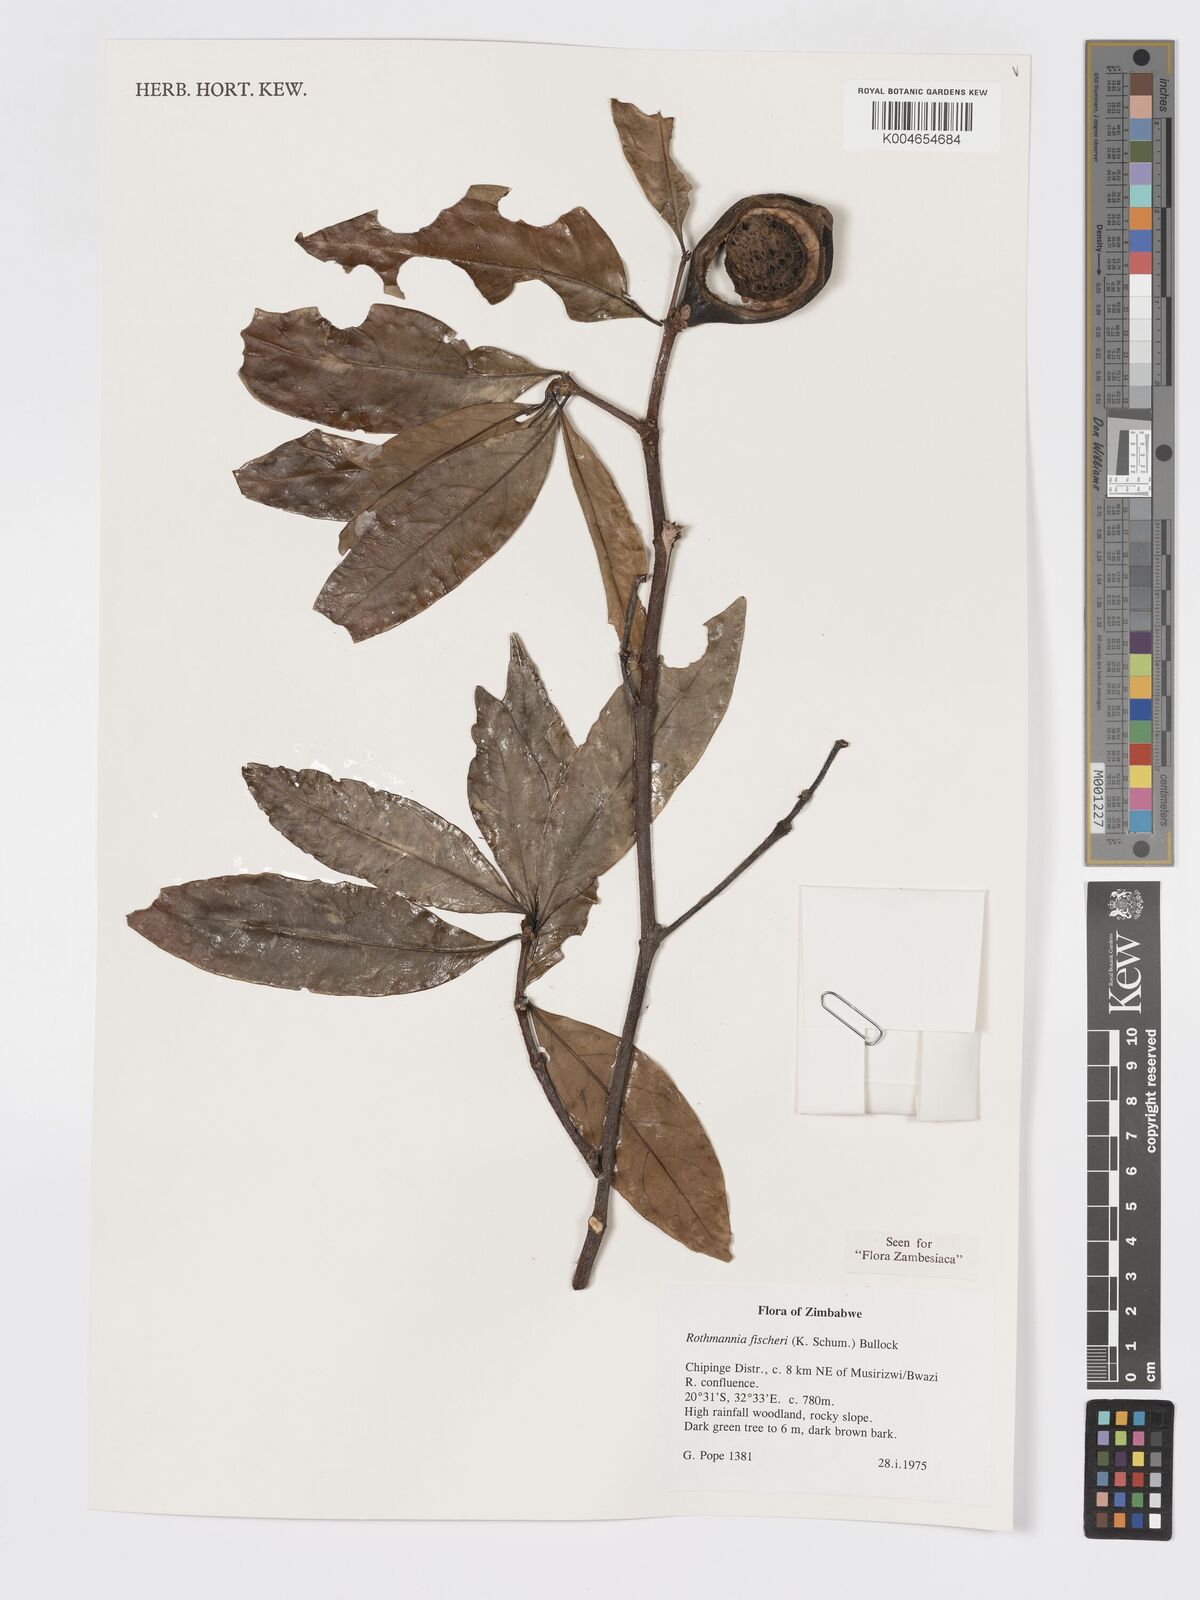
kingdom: Plantae
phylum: Tracheophyta
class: Magnoliopsida
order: Gentianales
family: Rubiaceae
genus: Rothmannia
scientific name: Rothmannia fischeri
